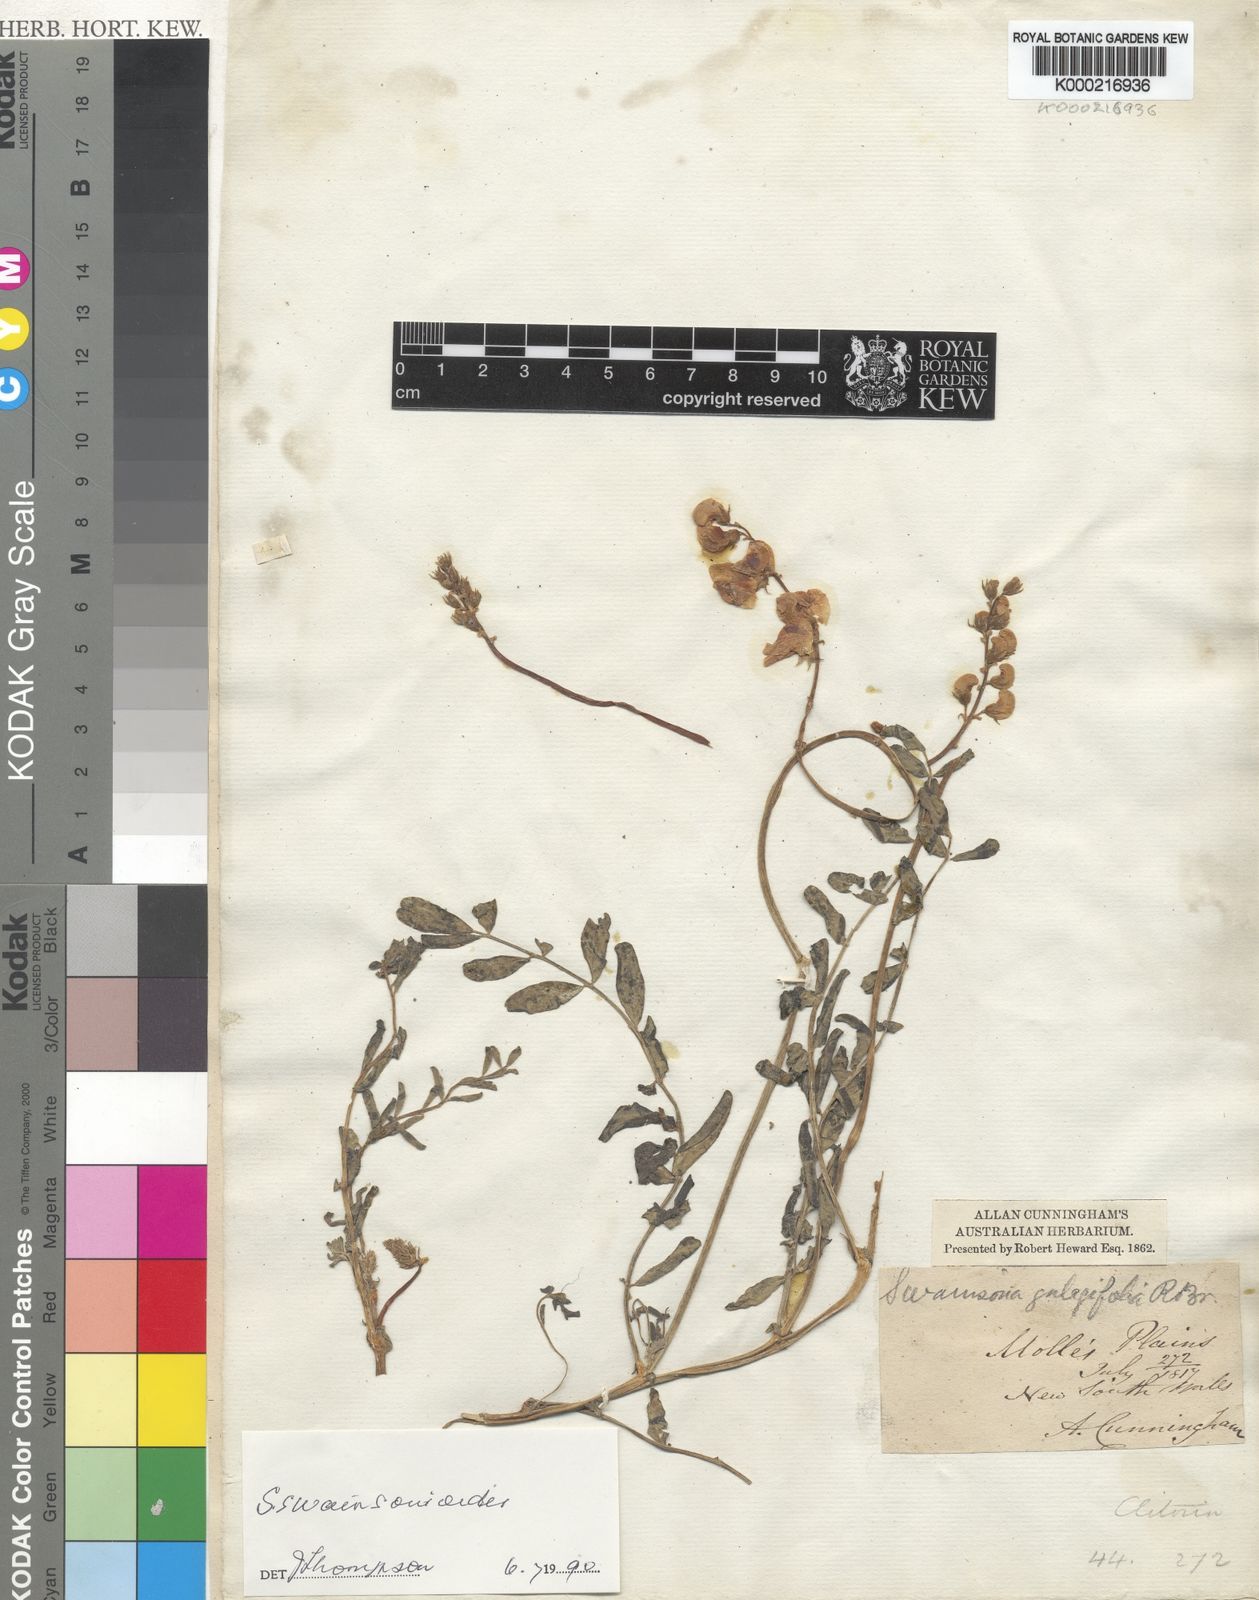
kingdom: Plantae
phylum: Tracheophyta
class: Magnoliopsida
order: Fabales
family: Fabaceae
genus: Swainsona
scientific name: Swainsona swainsonioides
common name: Downy swainsona
